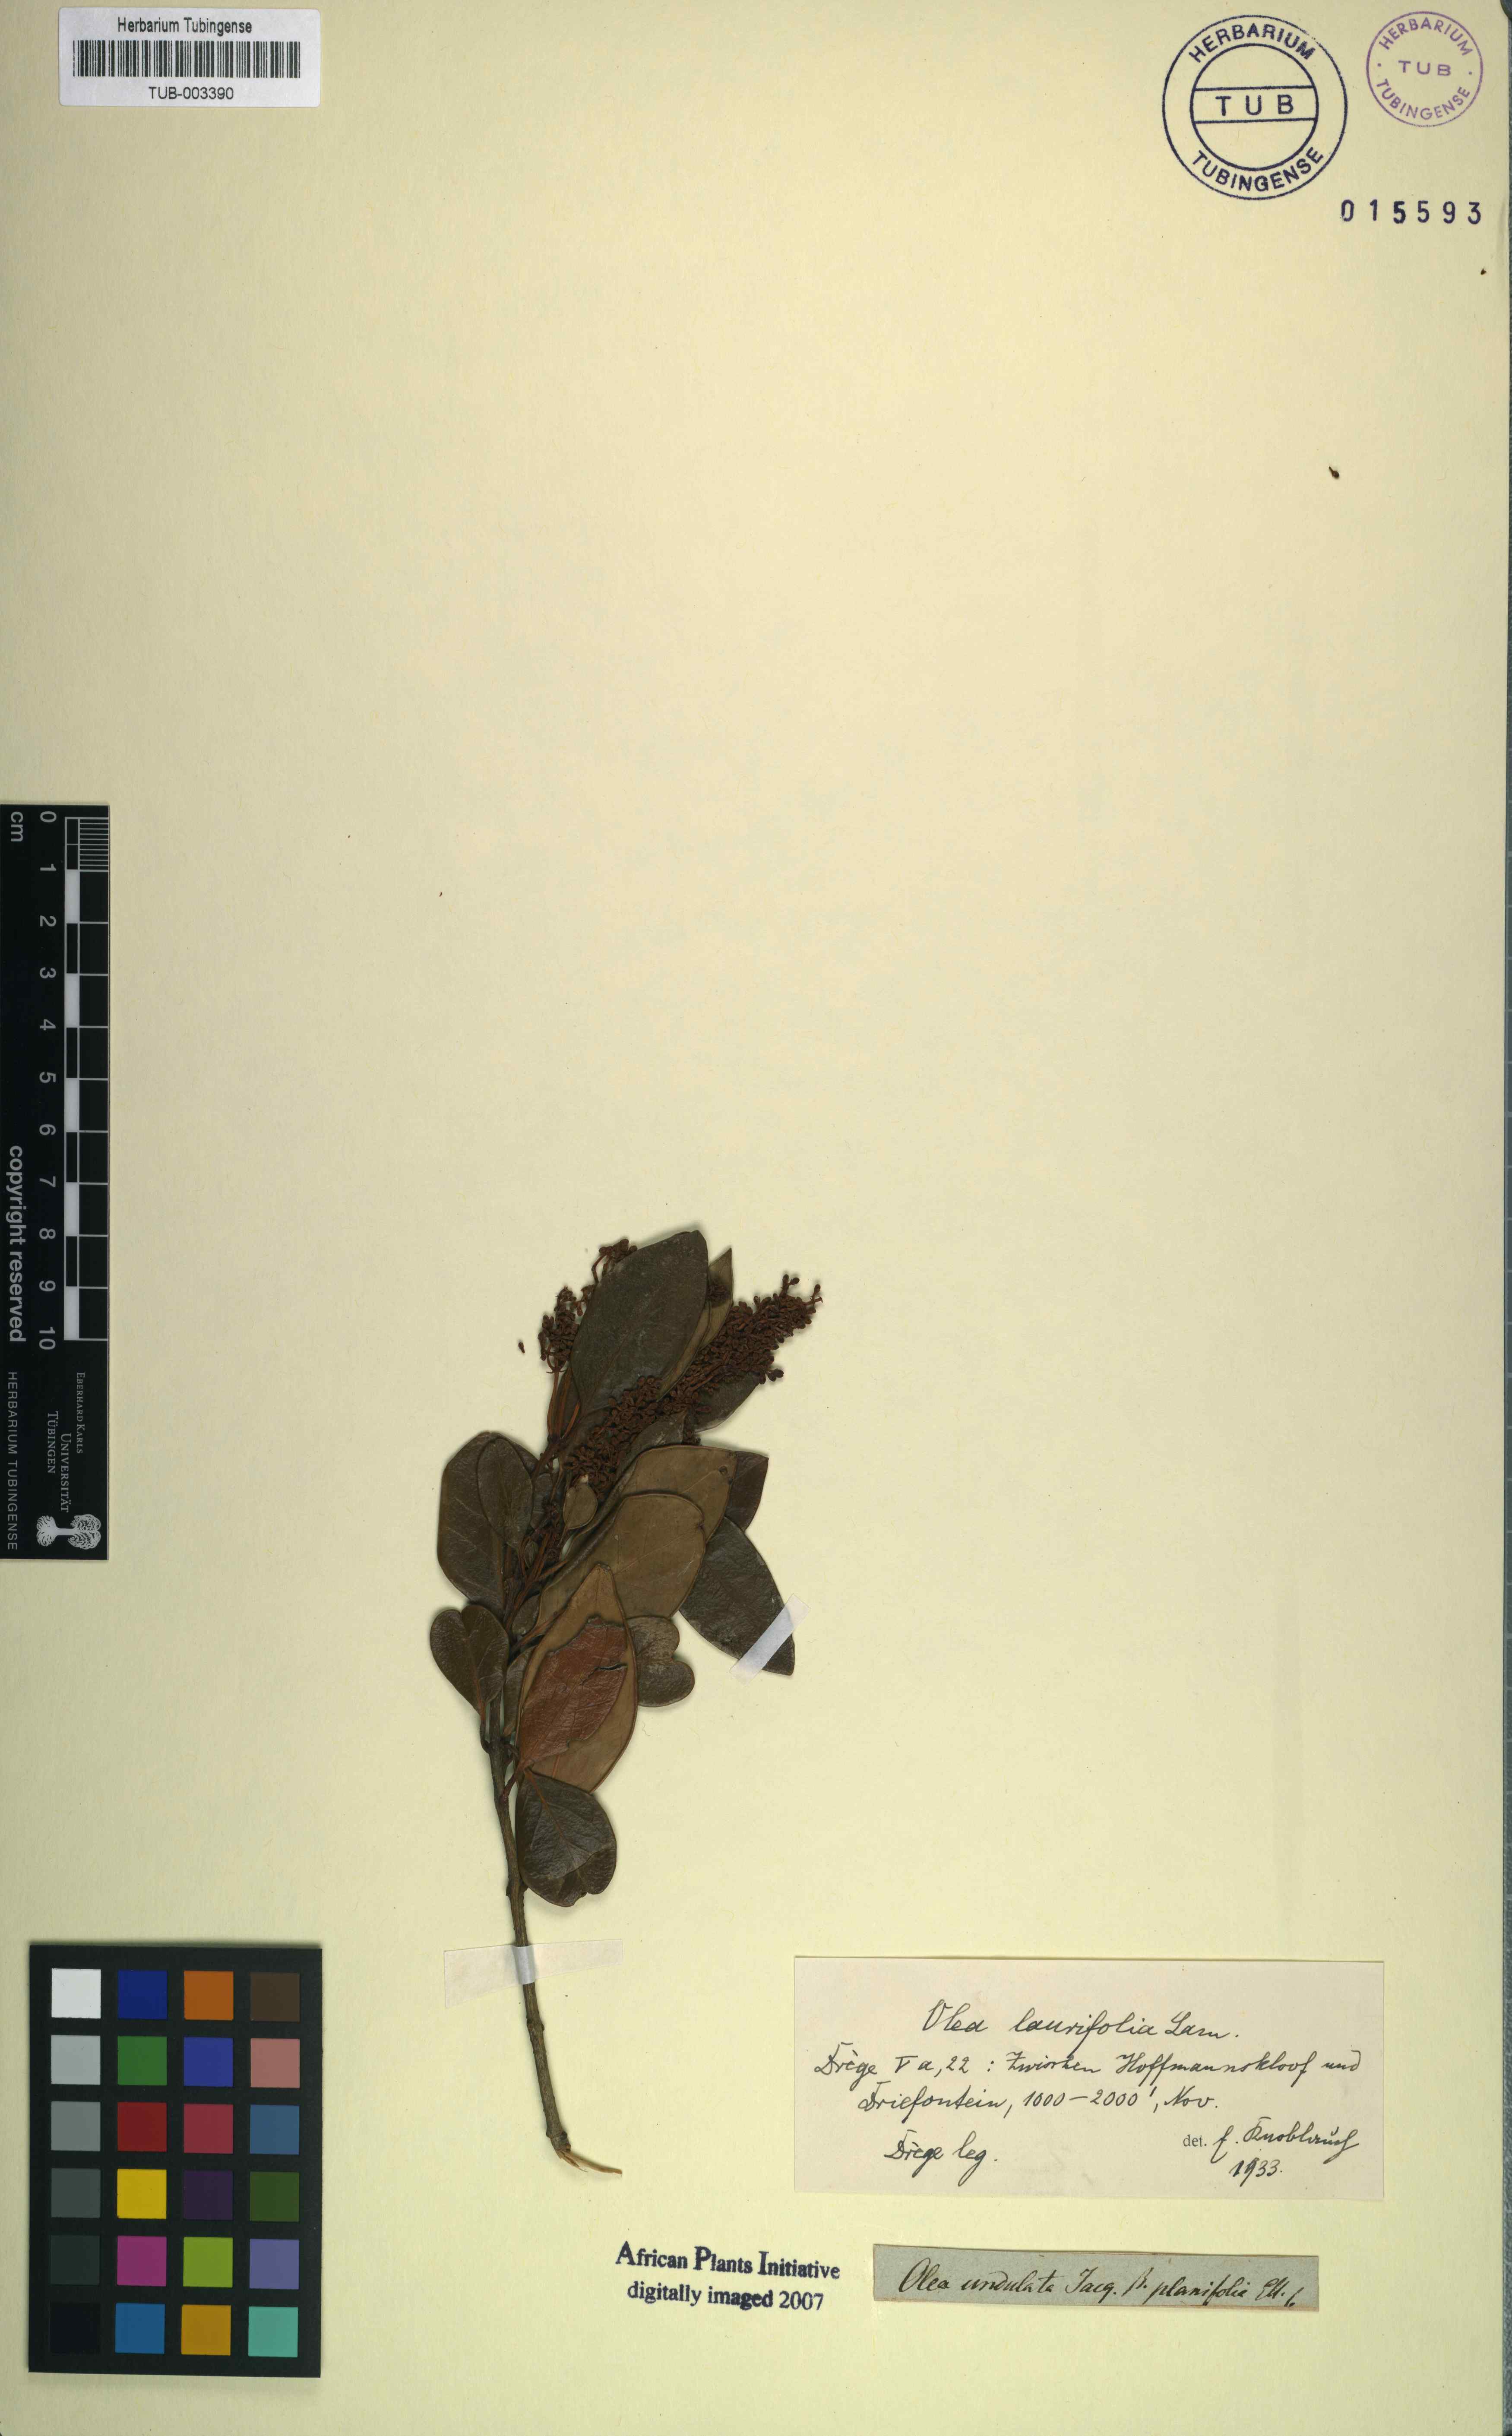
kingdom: Plantae
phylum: Tracheophyta
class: Magnoliopsida
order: Lamiales
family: Oleaceae
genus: Olea
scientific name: Olea capensis
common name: Black ironwood
